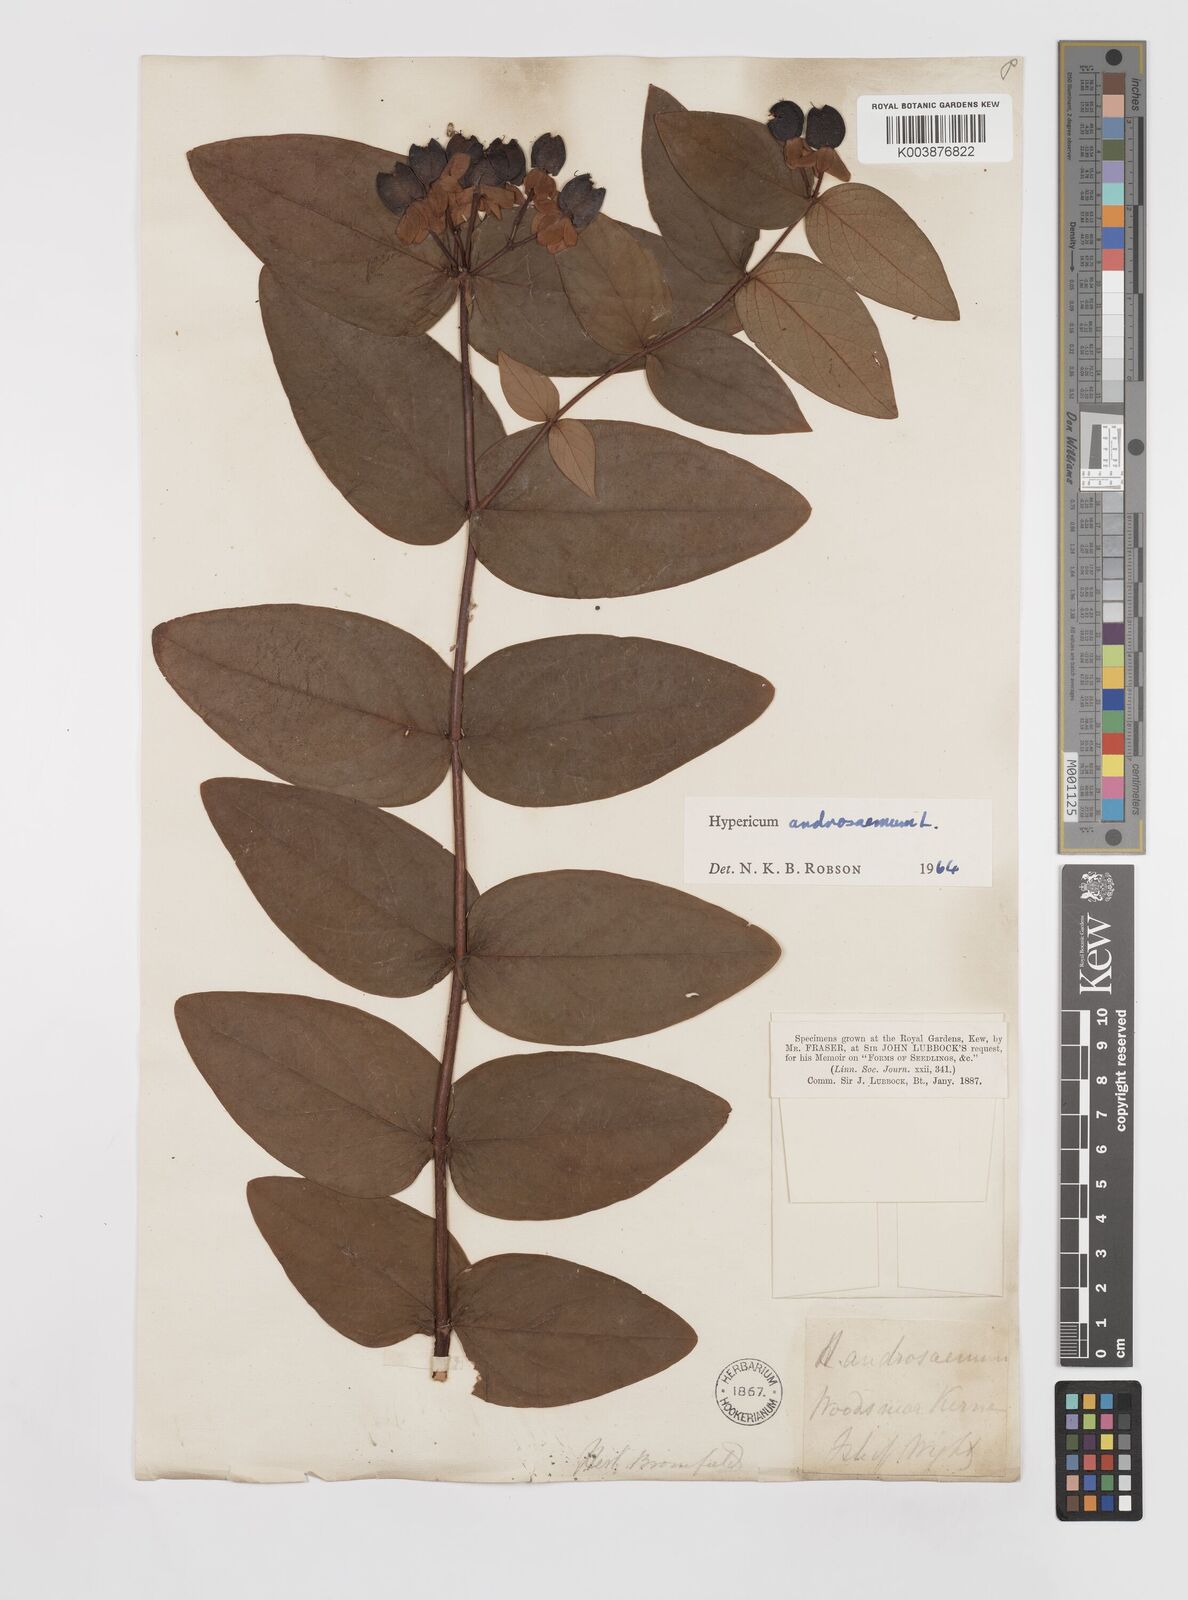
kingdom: Plantae
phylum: Tracheophyta
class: Magnoliopsida
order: Malpighiales
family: Hypericaceae
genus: Hypericum
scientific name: Hypericum androsaemum
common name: Sweet-amber
